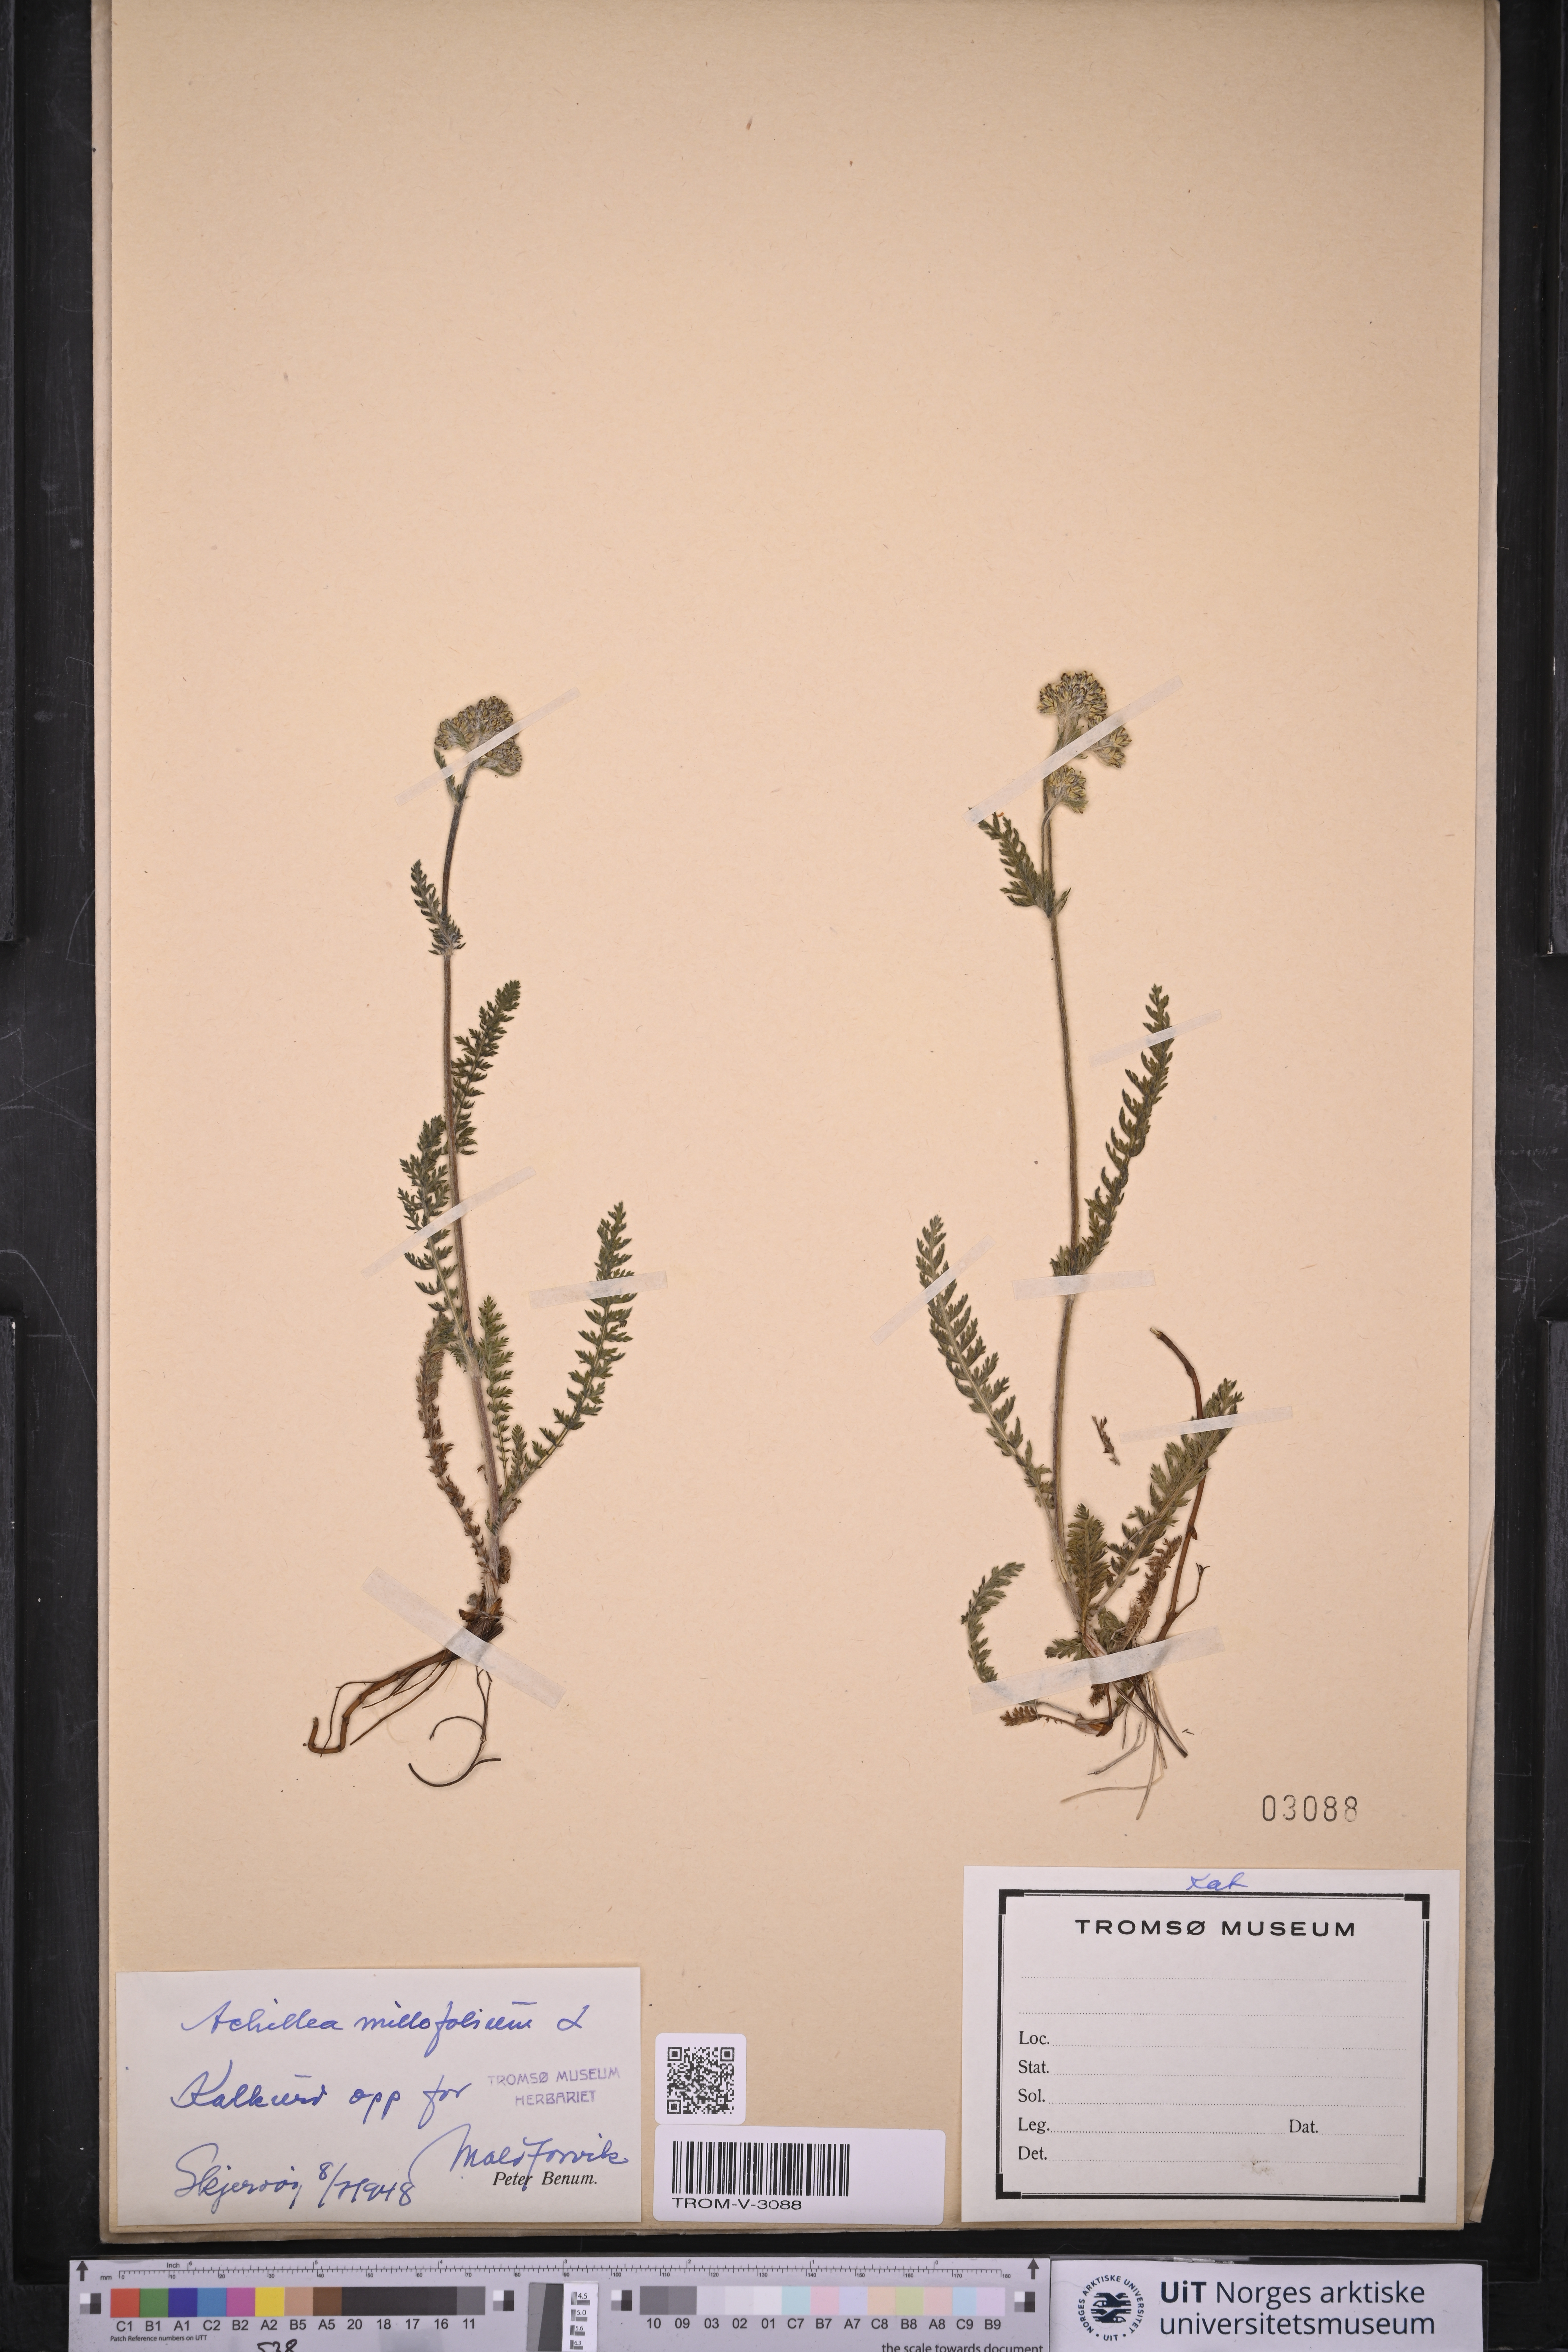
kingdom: Plantae
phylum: Tracheophyta
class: Magnoliopsida
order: Asterales
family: Asteraceae
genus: Achillea
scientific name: Achillea millefolium
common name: Yarrow
